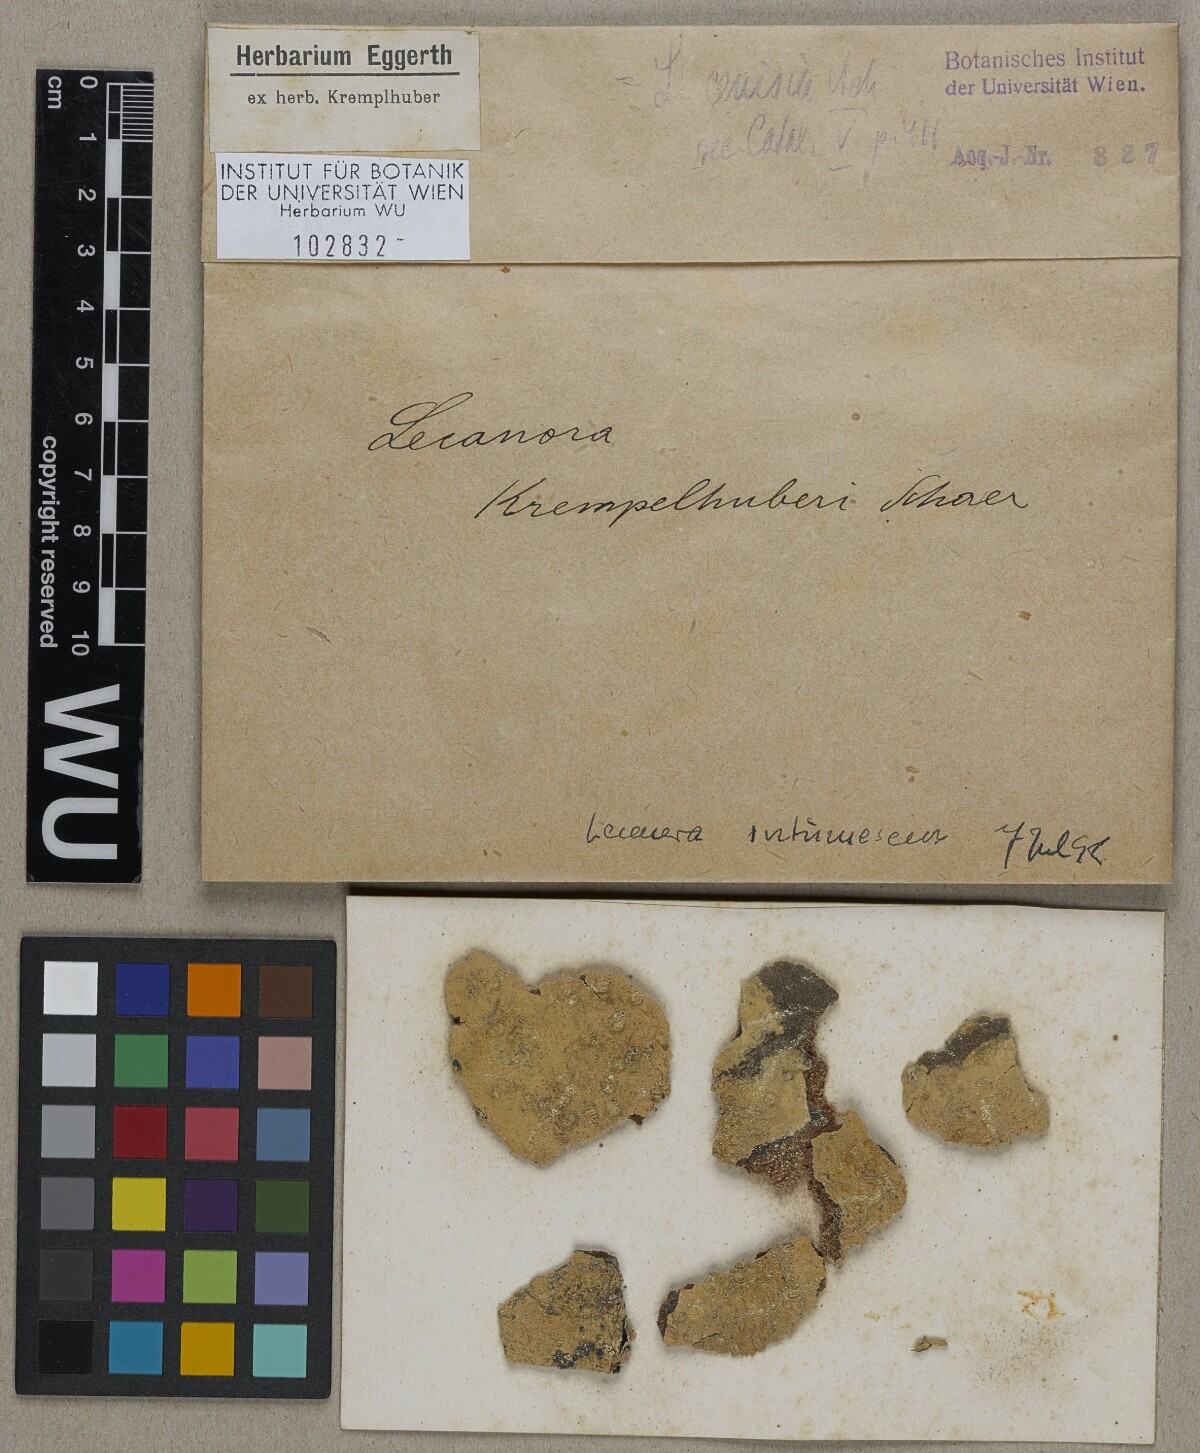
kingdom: Fungi
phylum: Ascomycota
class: Lecanoromycetes
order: Lecanorales
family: Lecanoraceae
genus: Lecanora
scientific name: Lecanora
